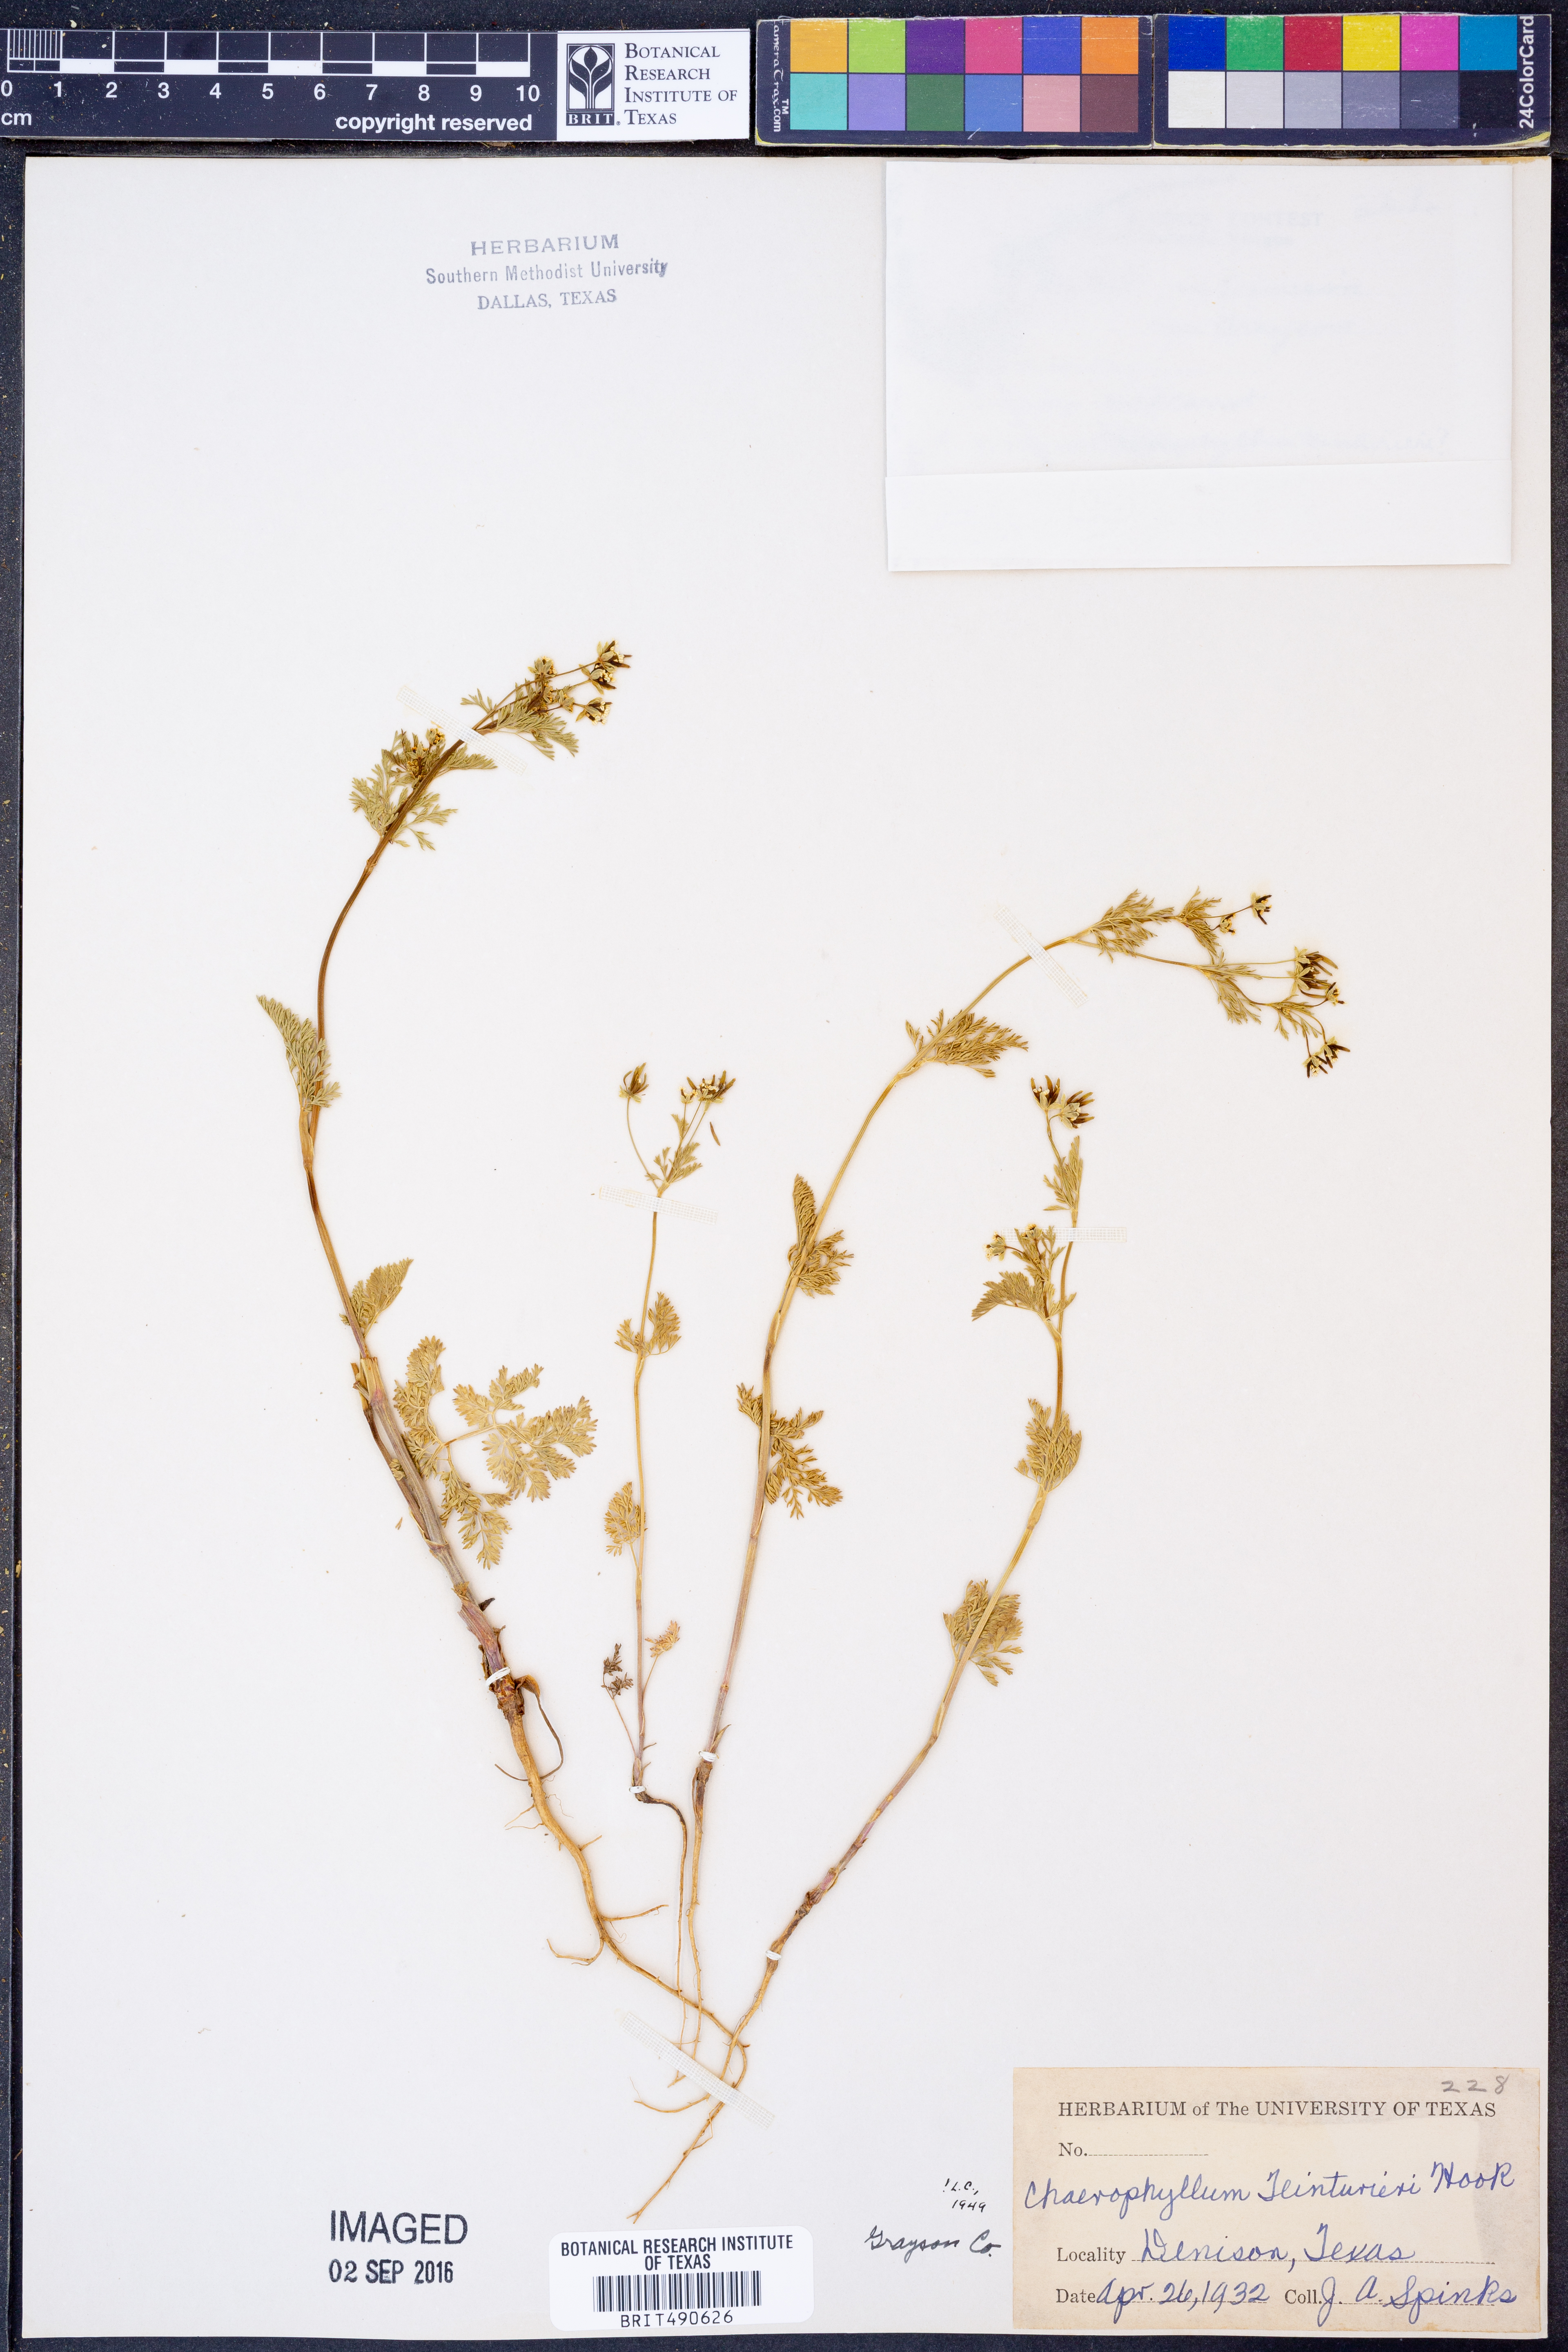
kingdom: Plantae
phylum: Tracheophyta
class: Magnoliopsida
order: Apiales
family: Apiaceae
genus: Chaerophyllum
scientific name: Chaerophyllum tainturieri
